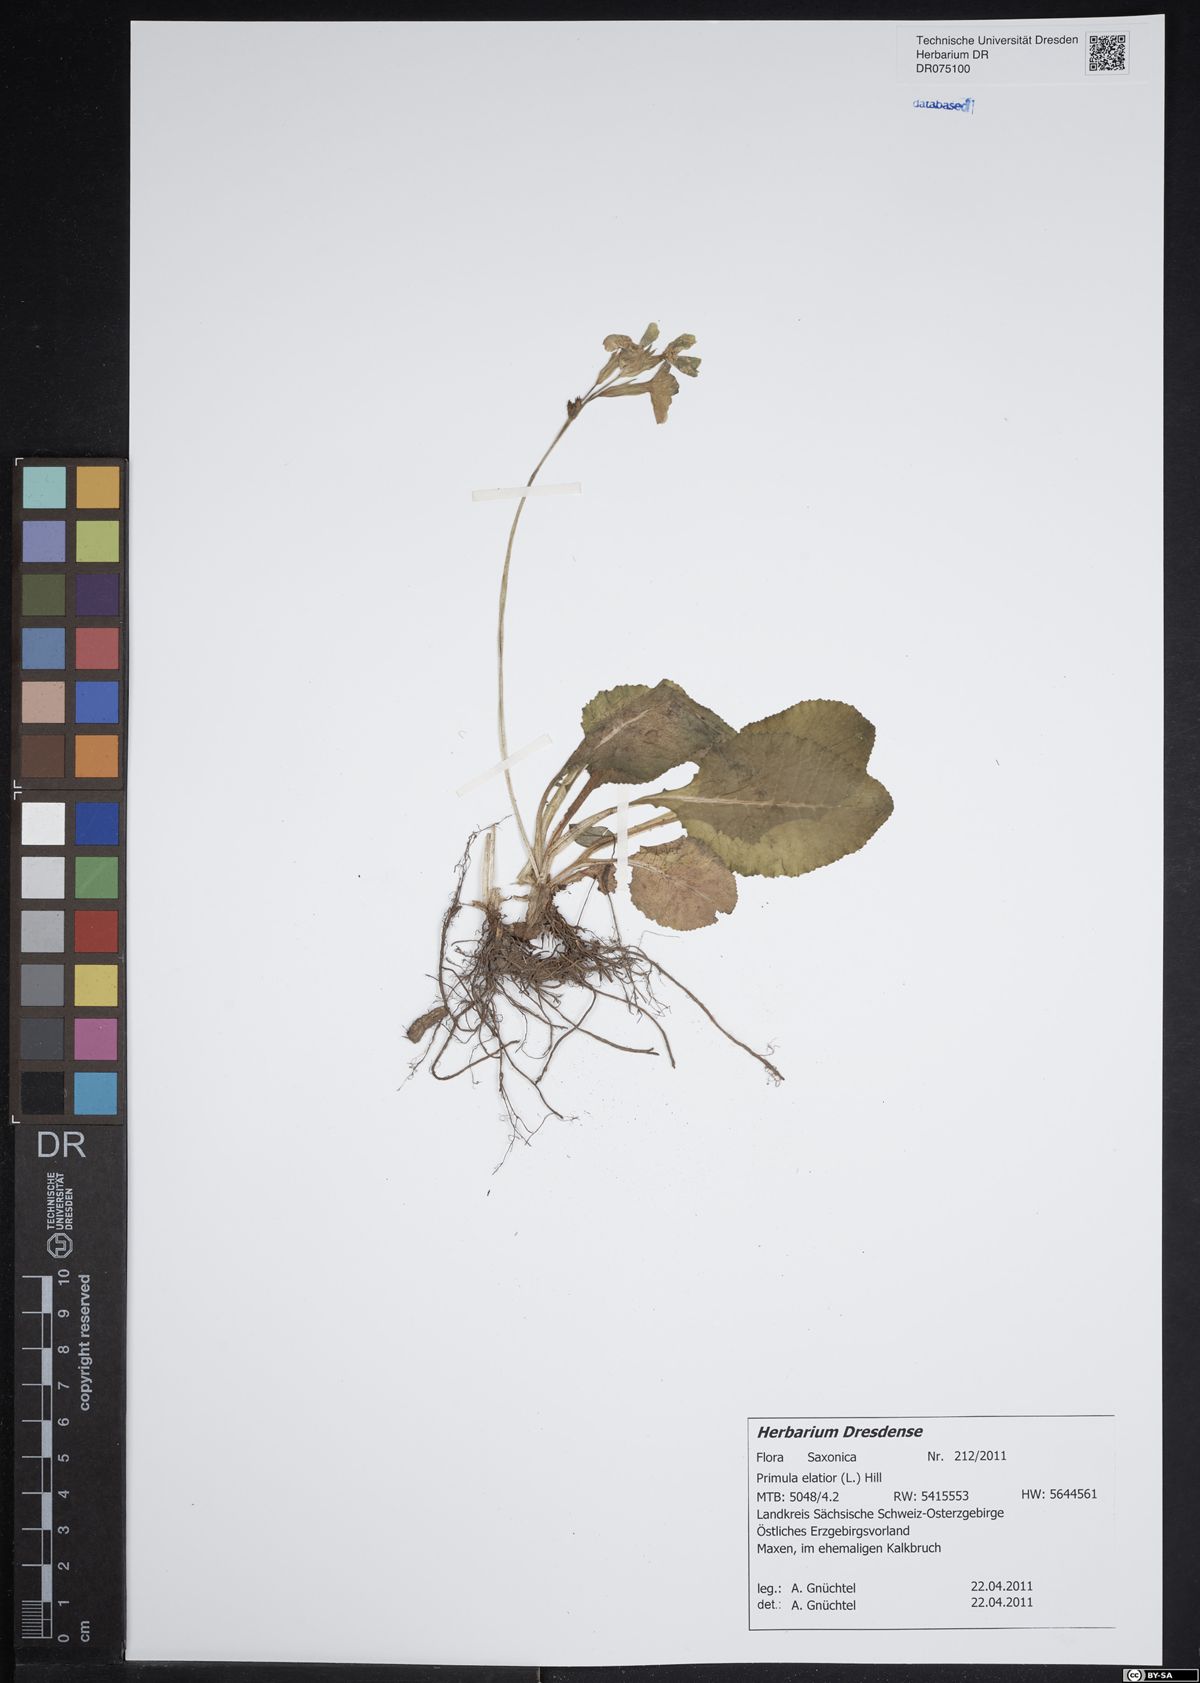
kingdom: Plantae
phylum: Tracheophyta
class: Magnoliopsida
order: Ericales
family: Primulaceae
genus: Primula
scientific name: Primula elatior
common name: Oxlip
